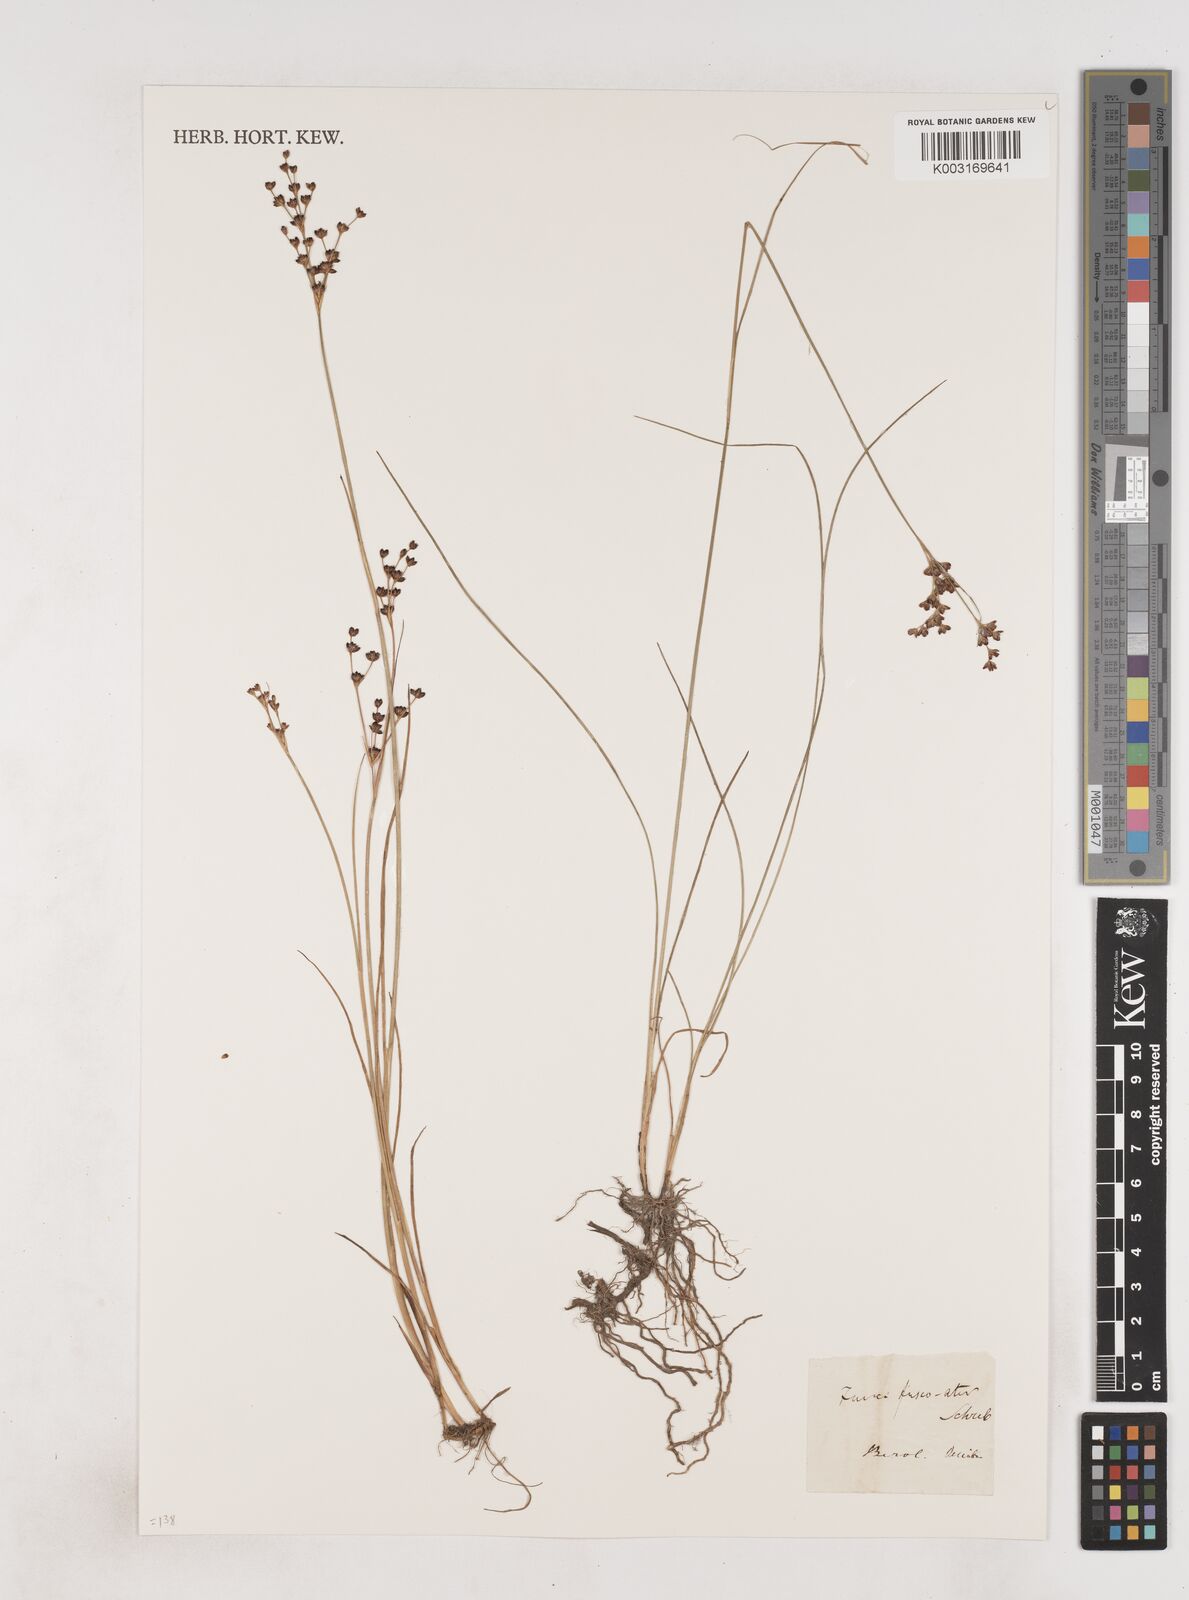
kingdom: Plantae
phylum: Tracheophyta
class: Liliopsida
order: Poales
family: Juncaceae
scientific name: Juncaceae
